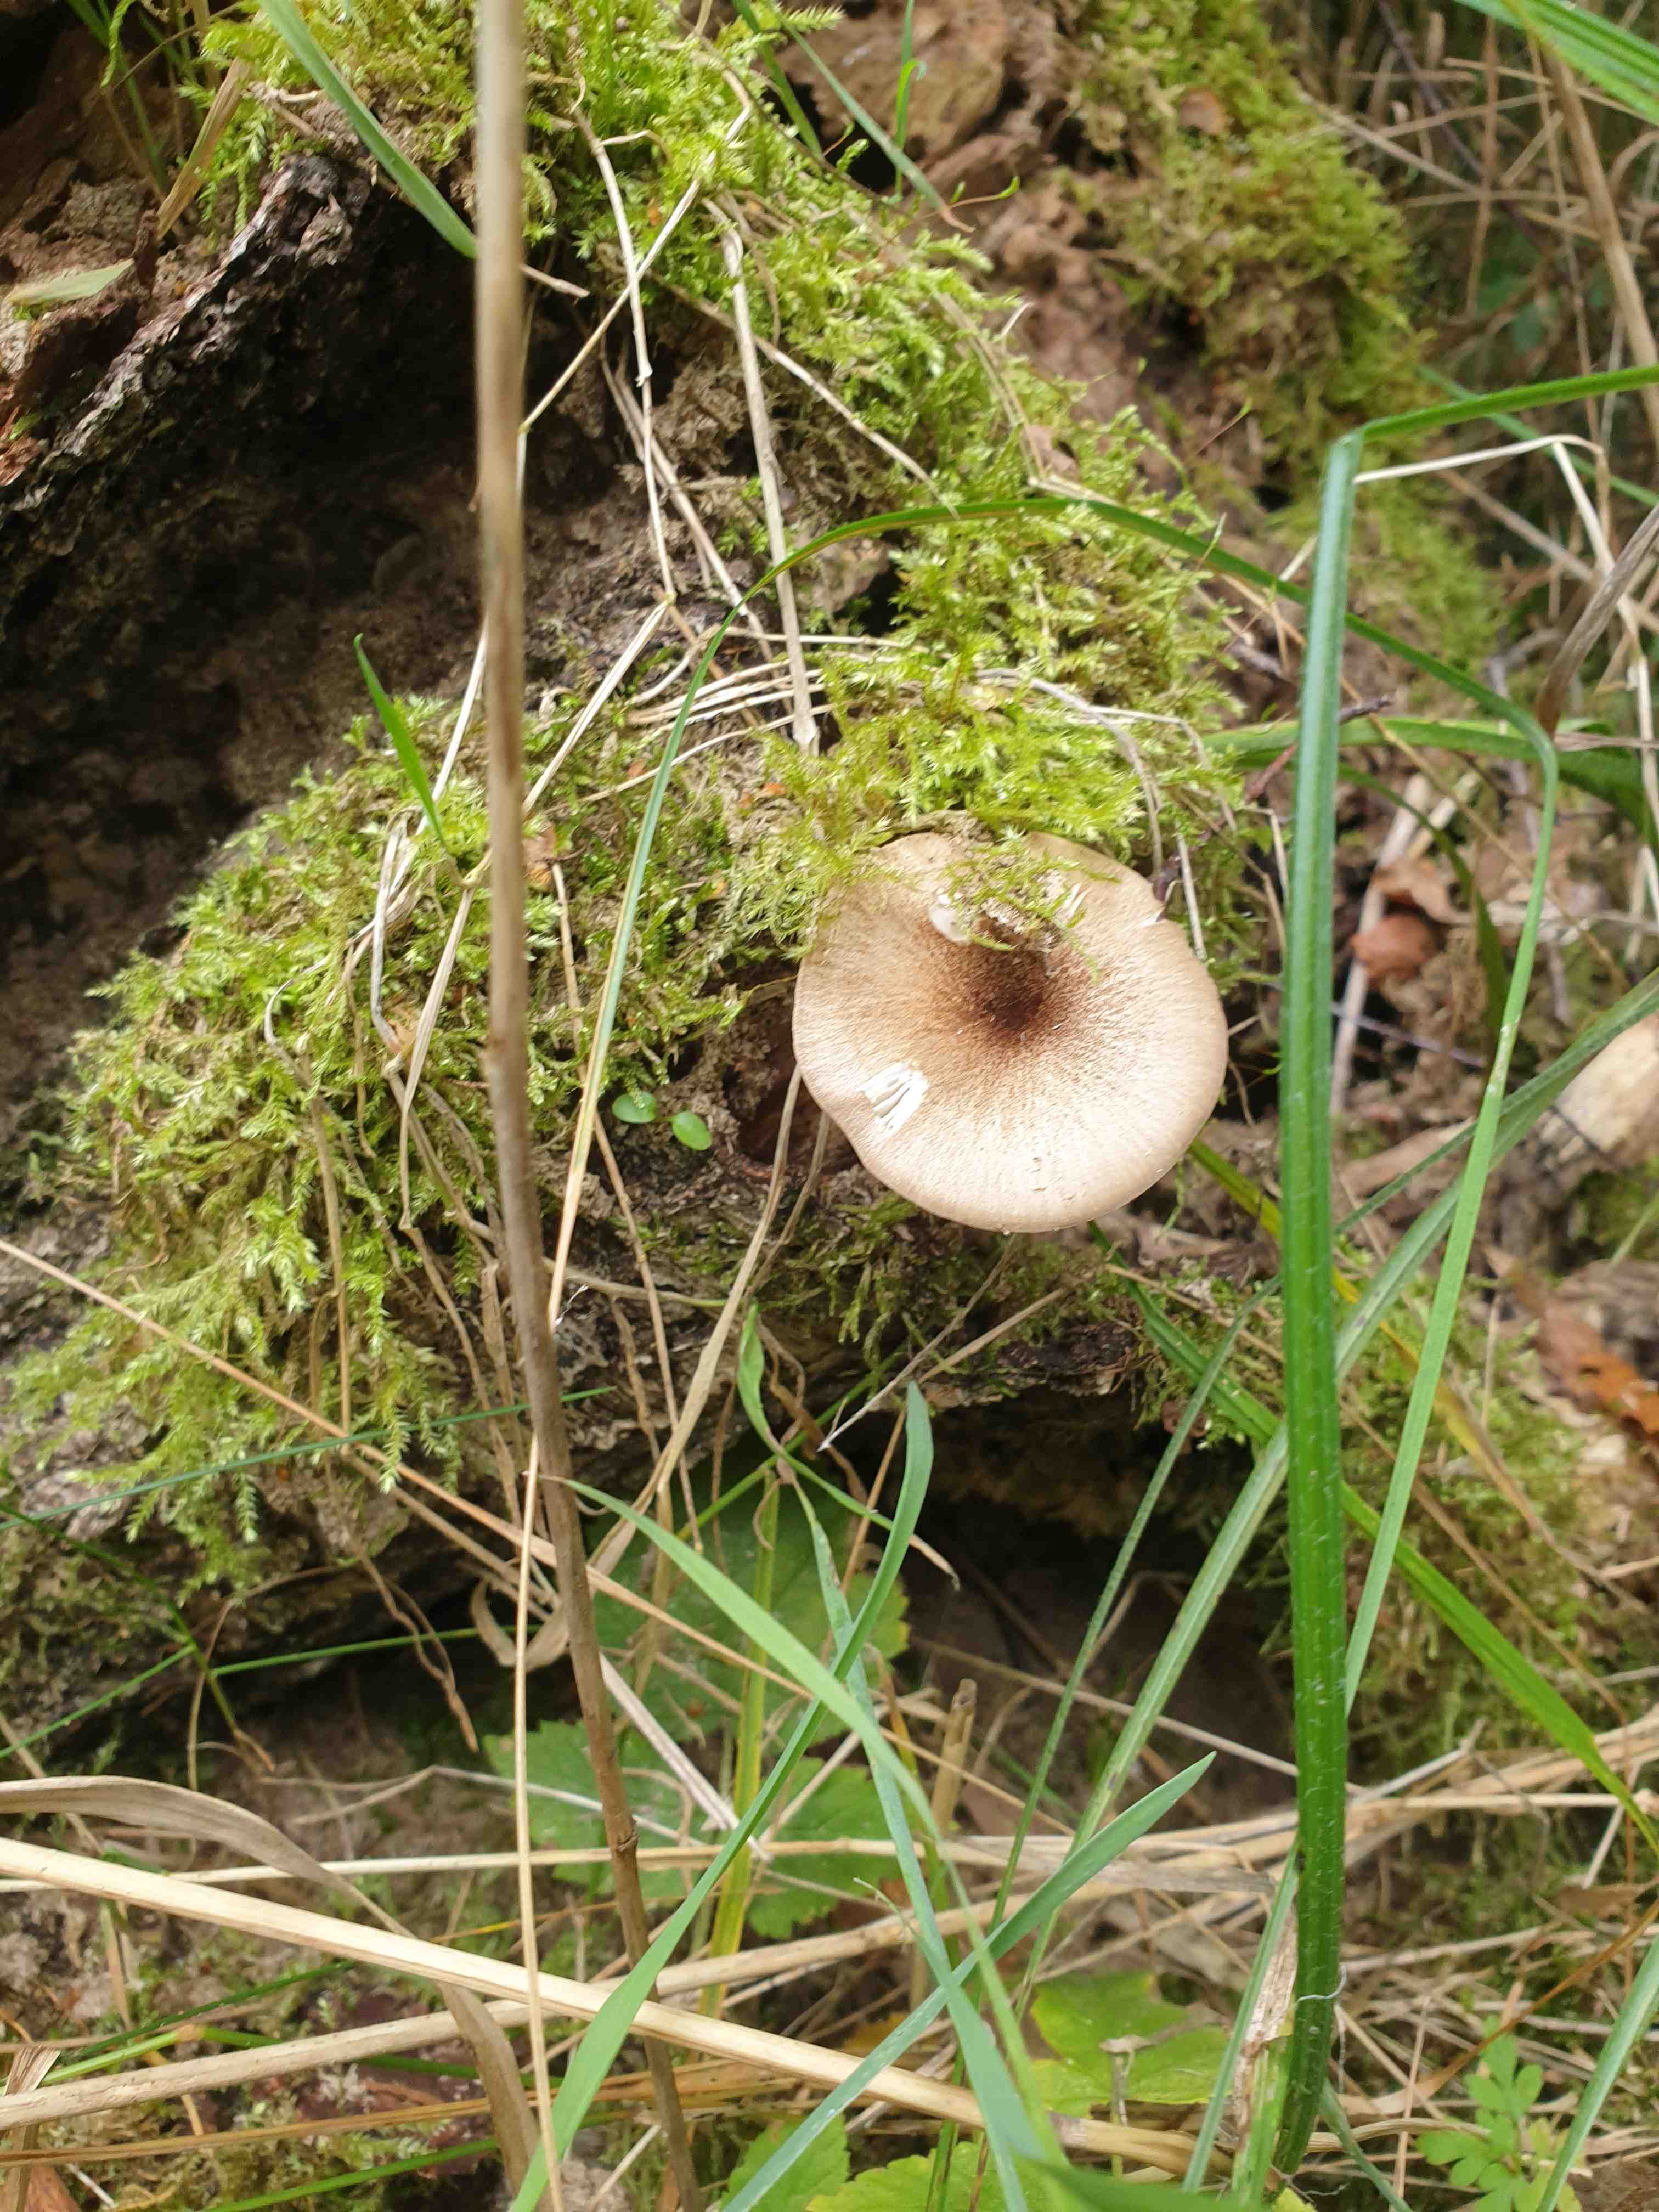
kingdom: Fungi
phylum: Basidiomycota
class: Agaricomycetes
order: Agaricales
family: Tricholomataceae
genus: Megacollybia
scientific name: Megacollybia platyphylla
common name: bredbladet væbnerhat
